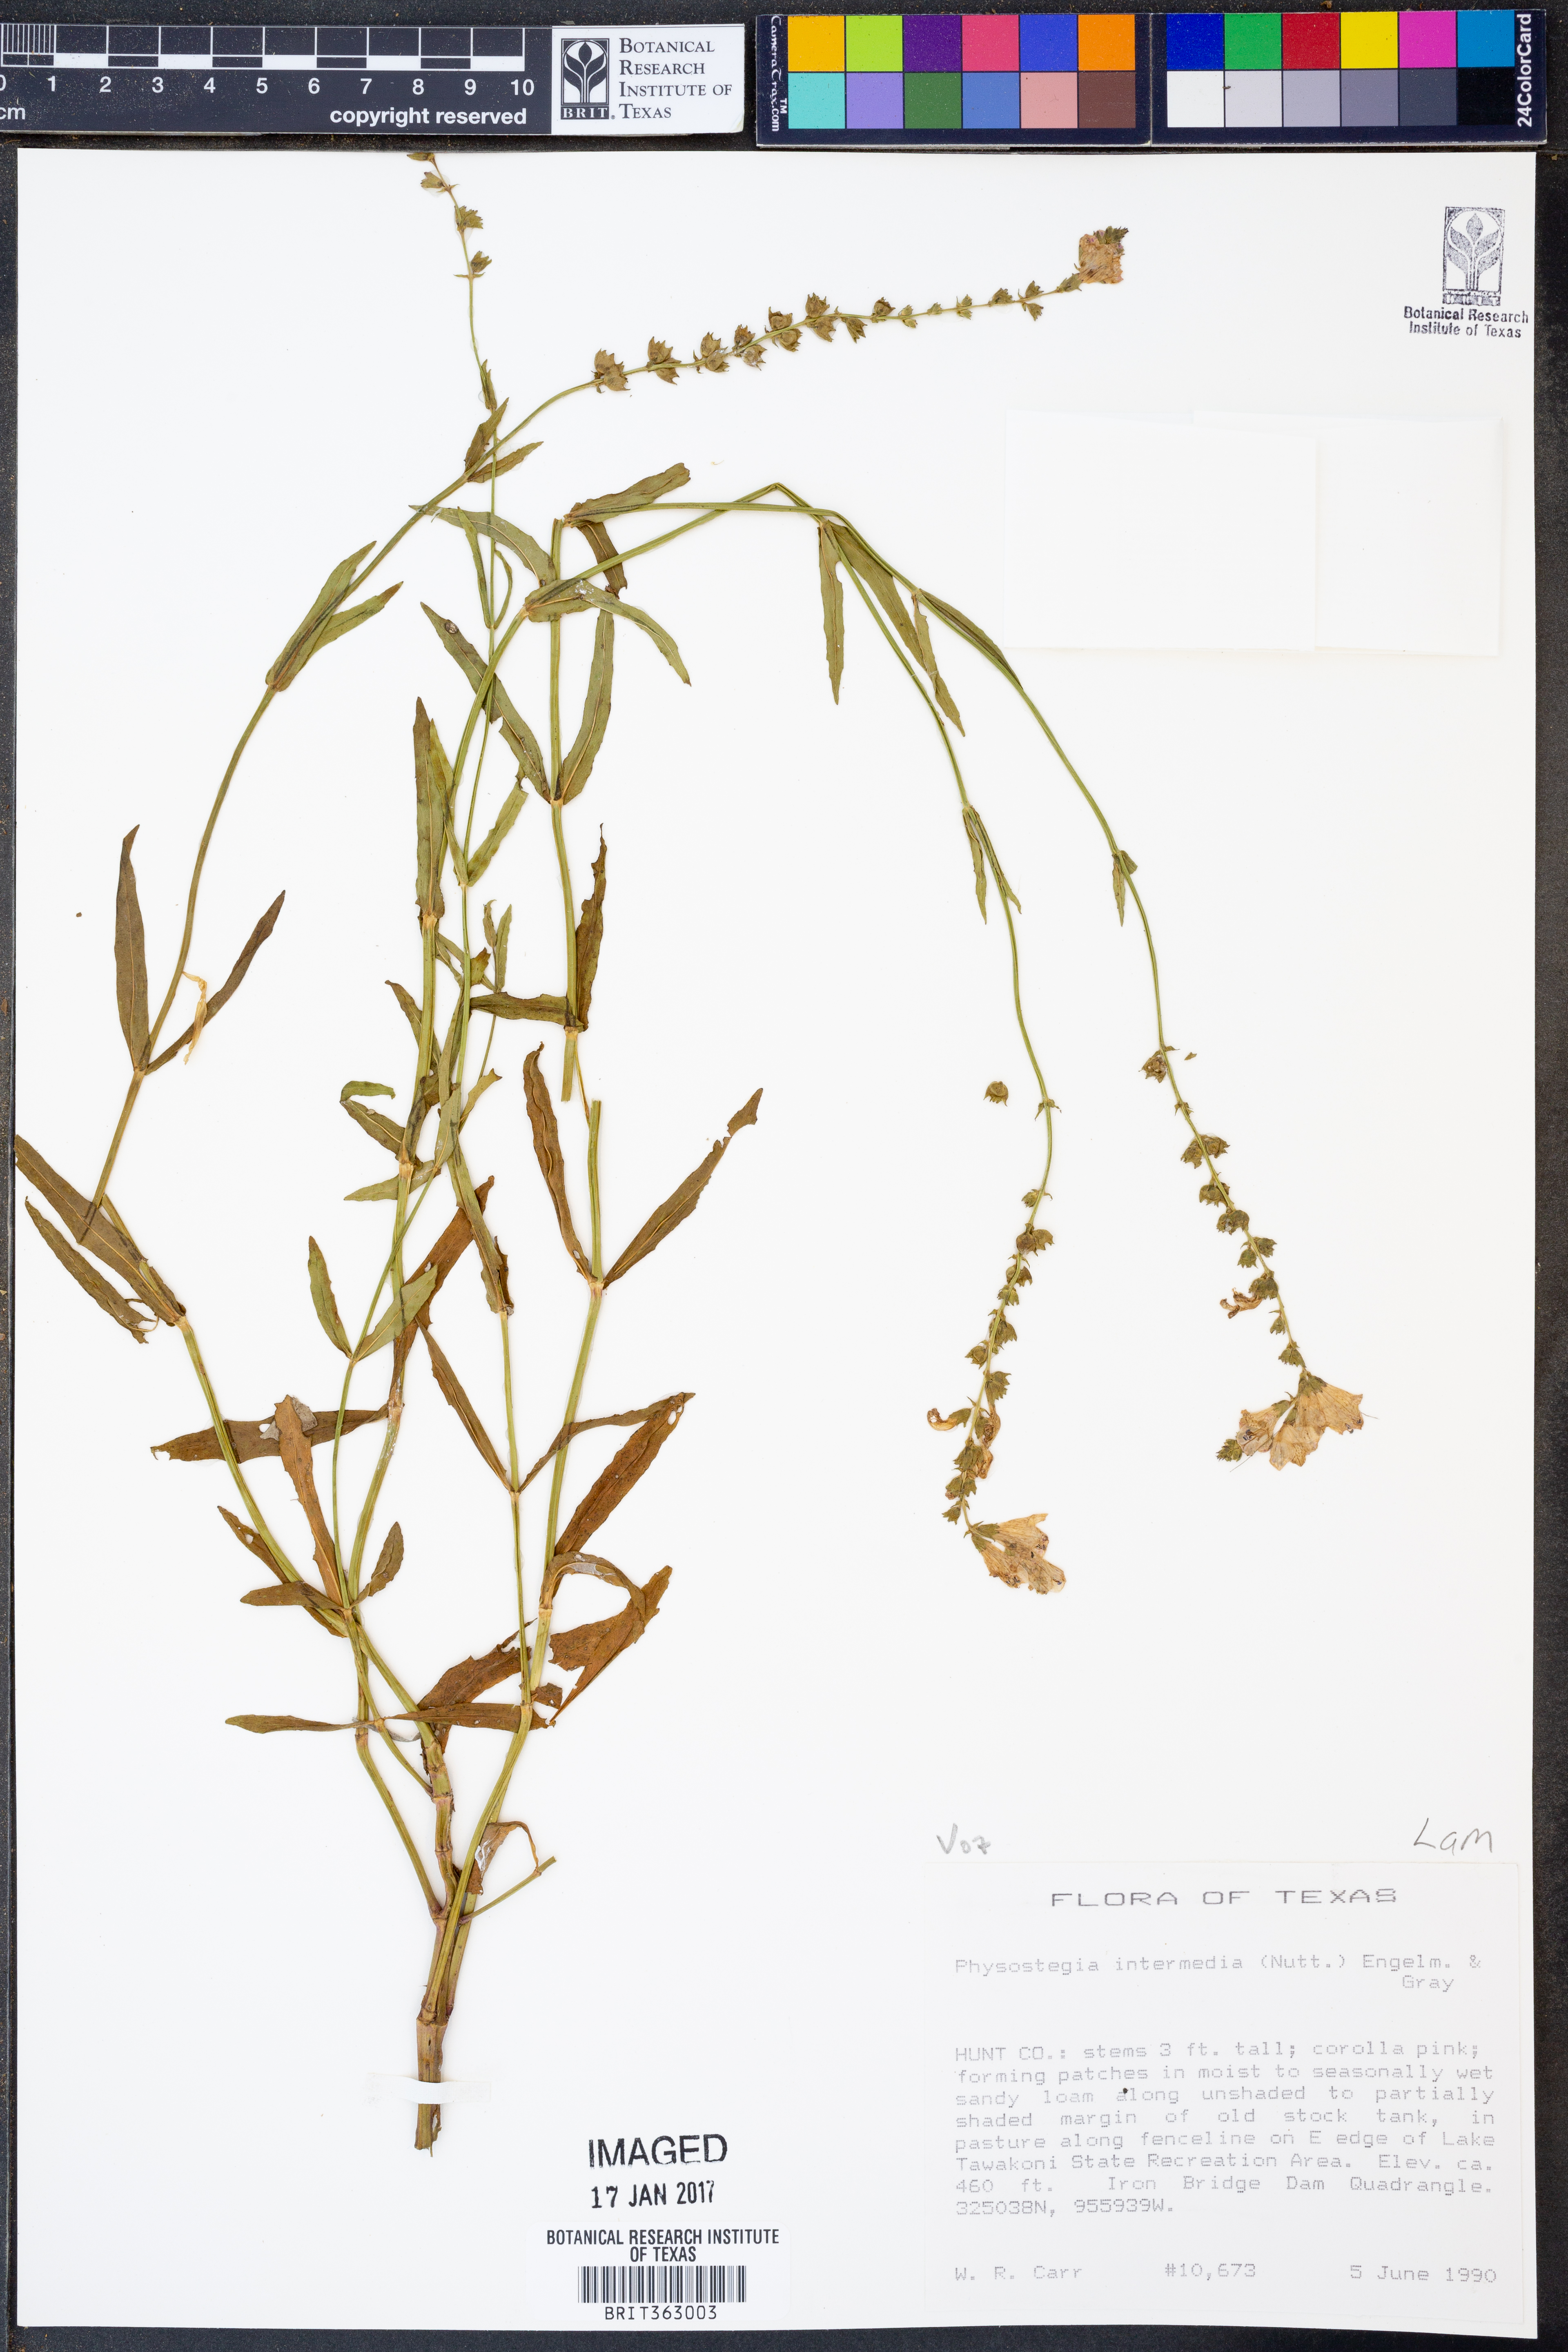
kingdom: Plantae
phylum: Tracheophyta
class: Magnoliopsida
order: Lamiales
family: Lamiaceae
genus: Physostegia
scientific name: Physostegia intermedia
